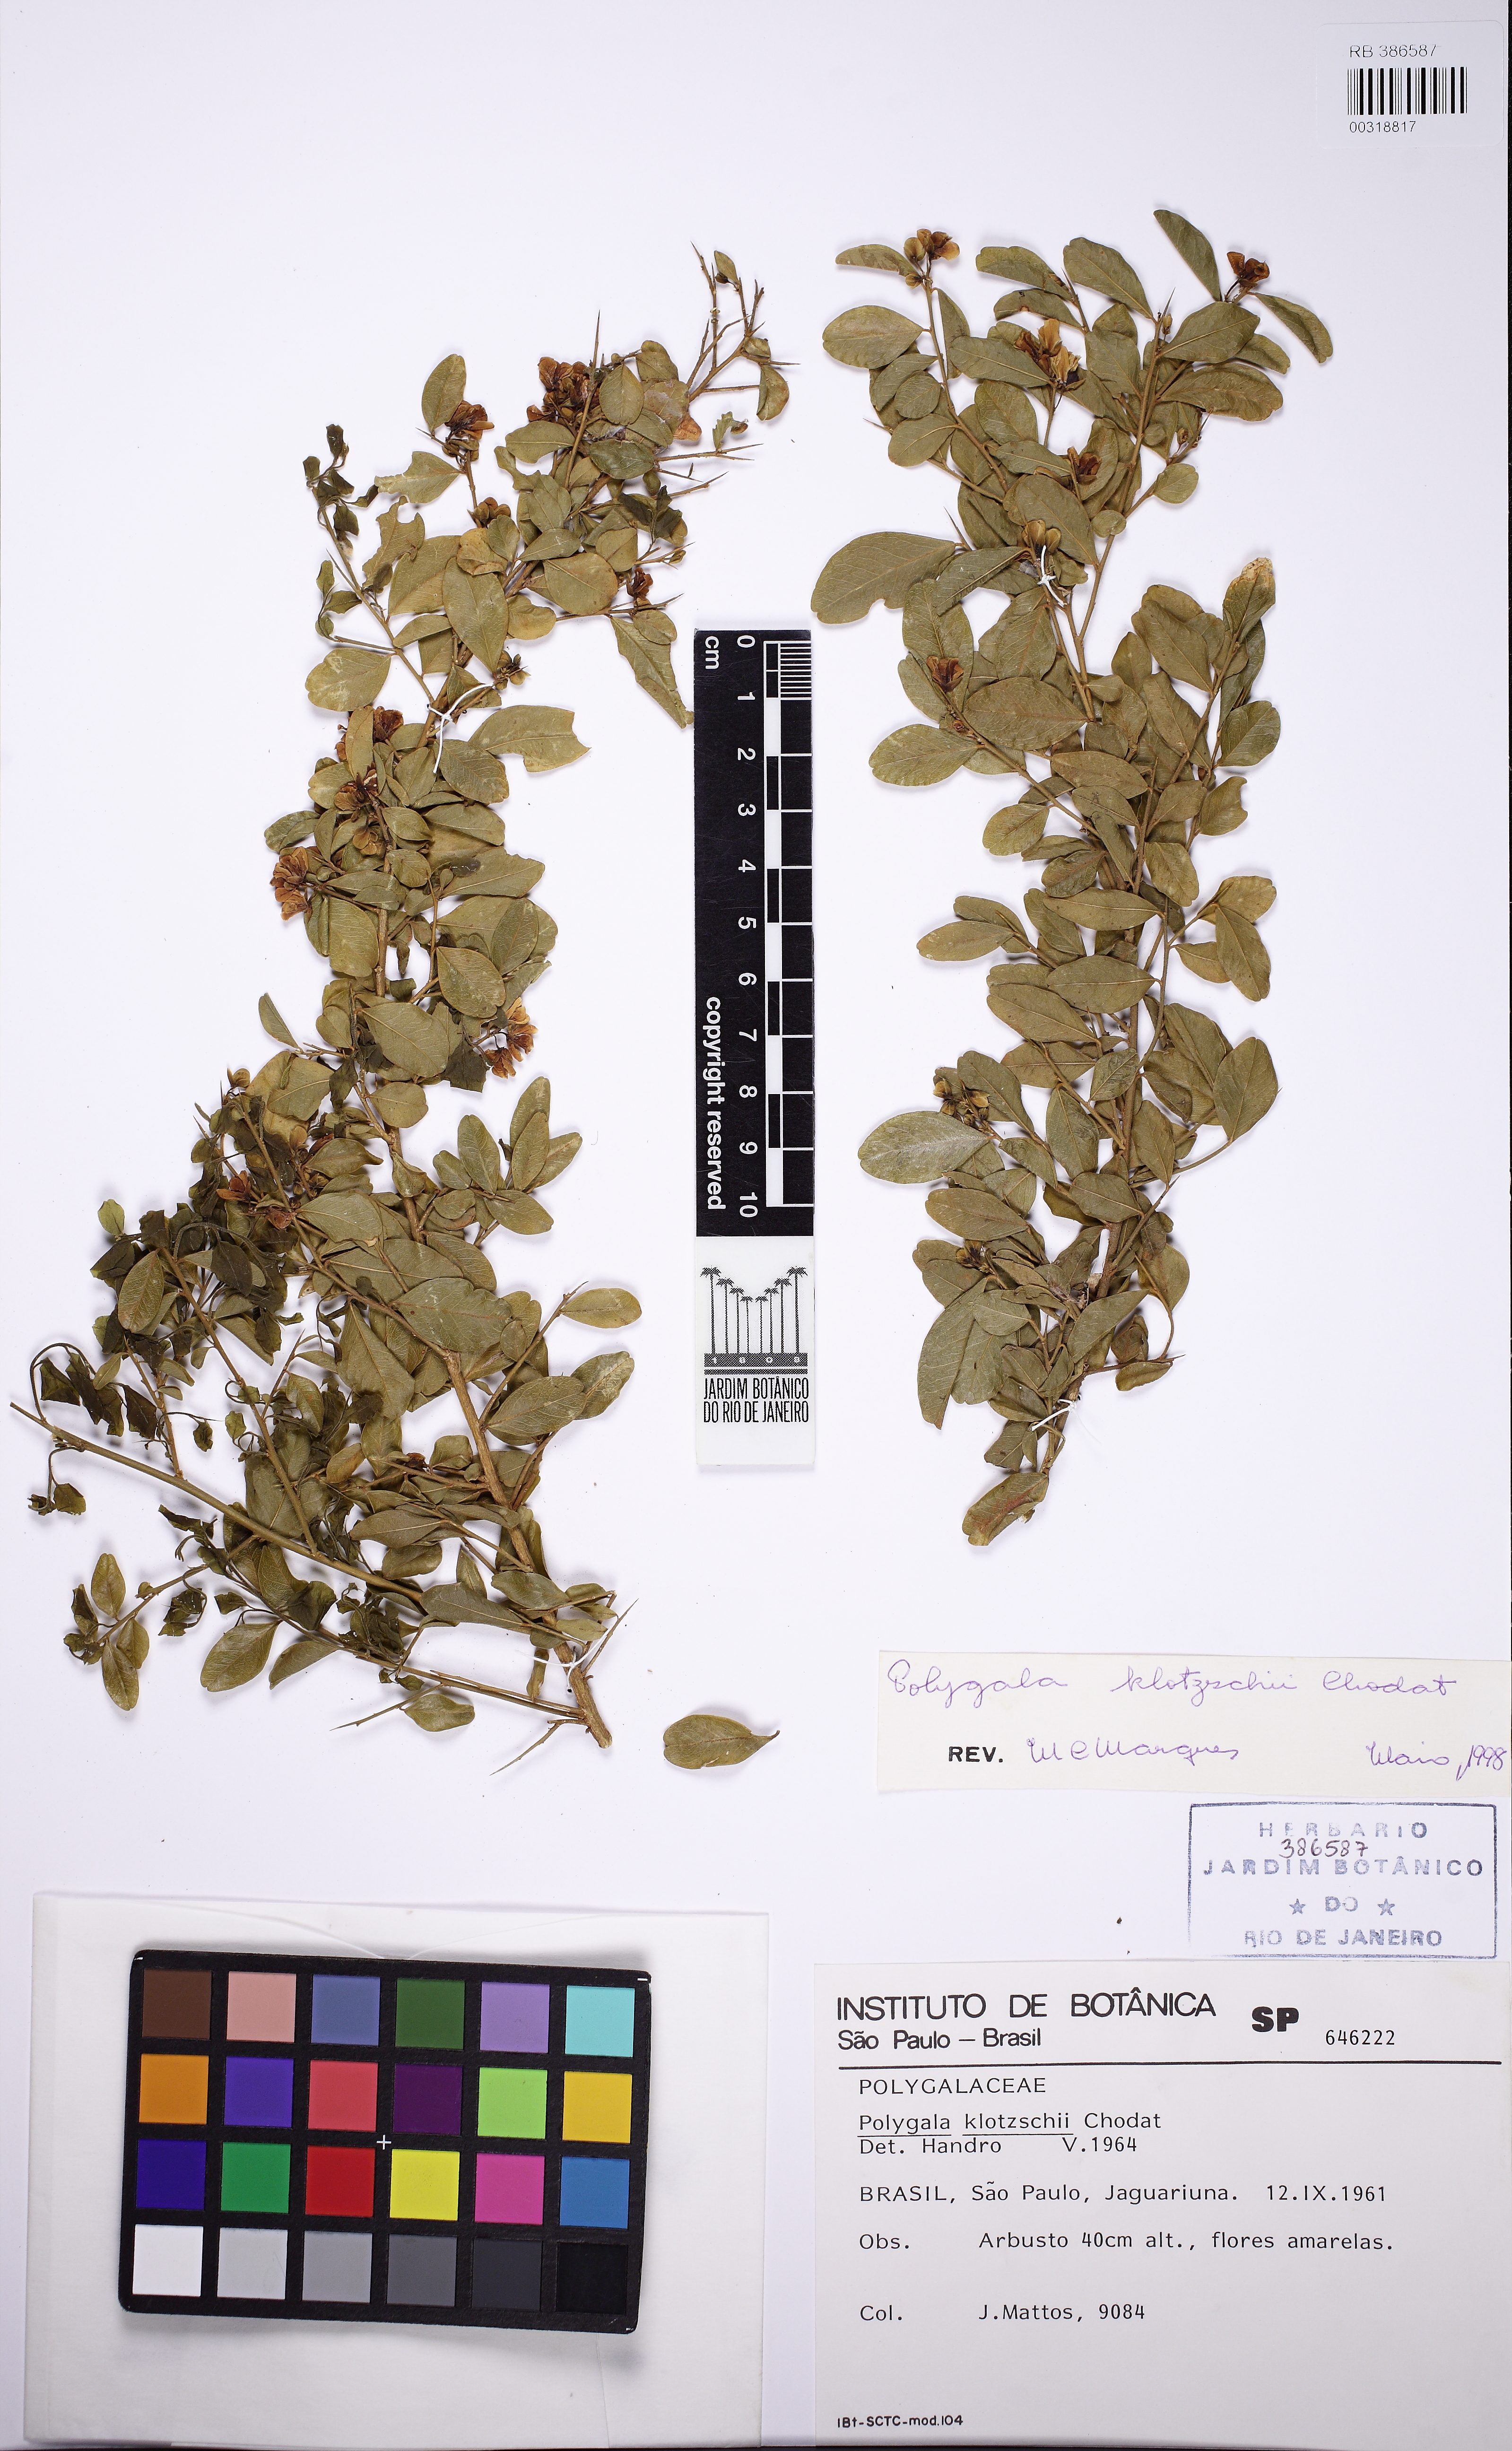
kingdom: Plantae
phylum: Tracheophyta
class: Magnoliopsida
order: Fabales
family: Polygalaceae
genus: Acanthocladus
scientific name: Acanthocladus brasiliensis
